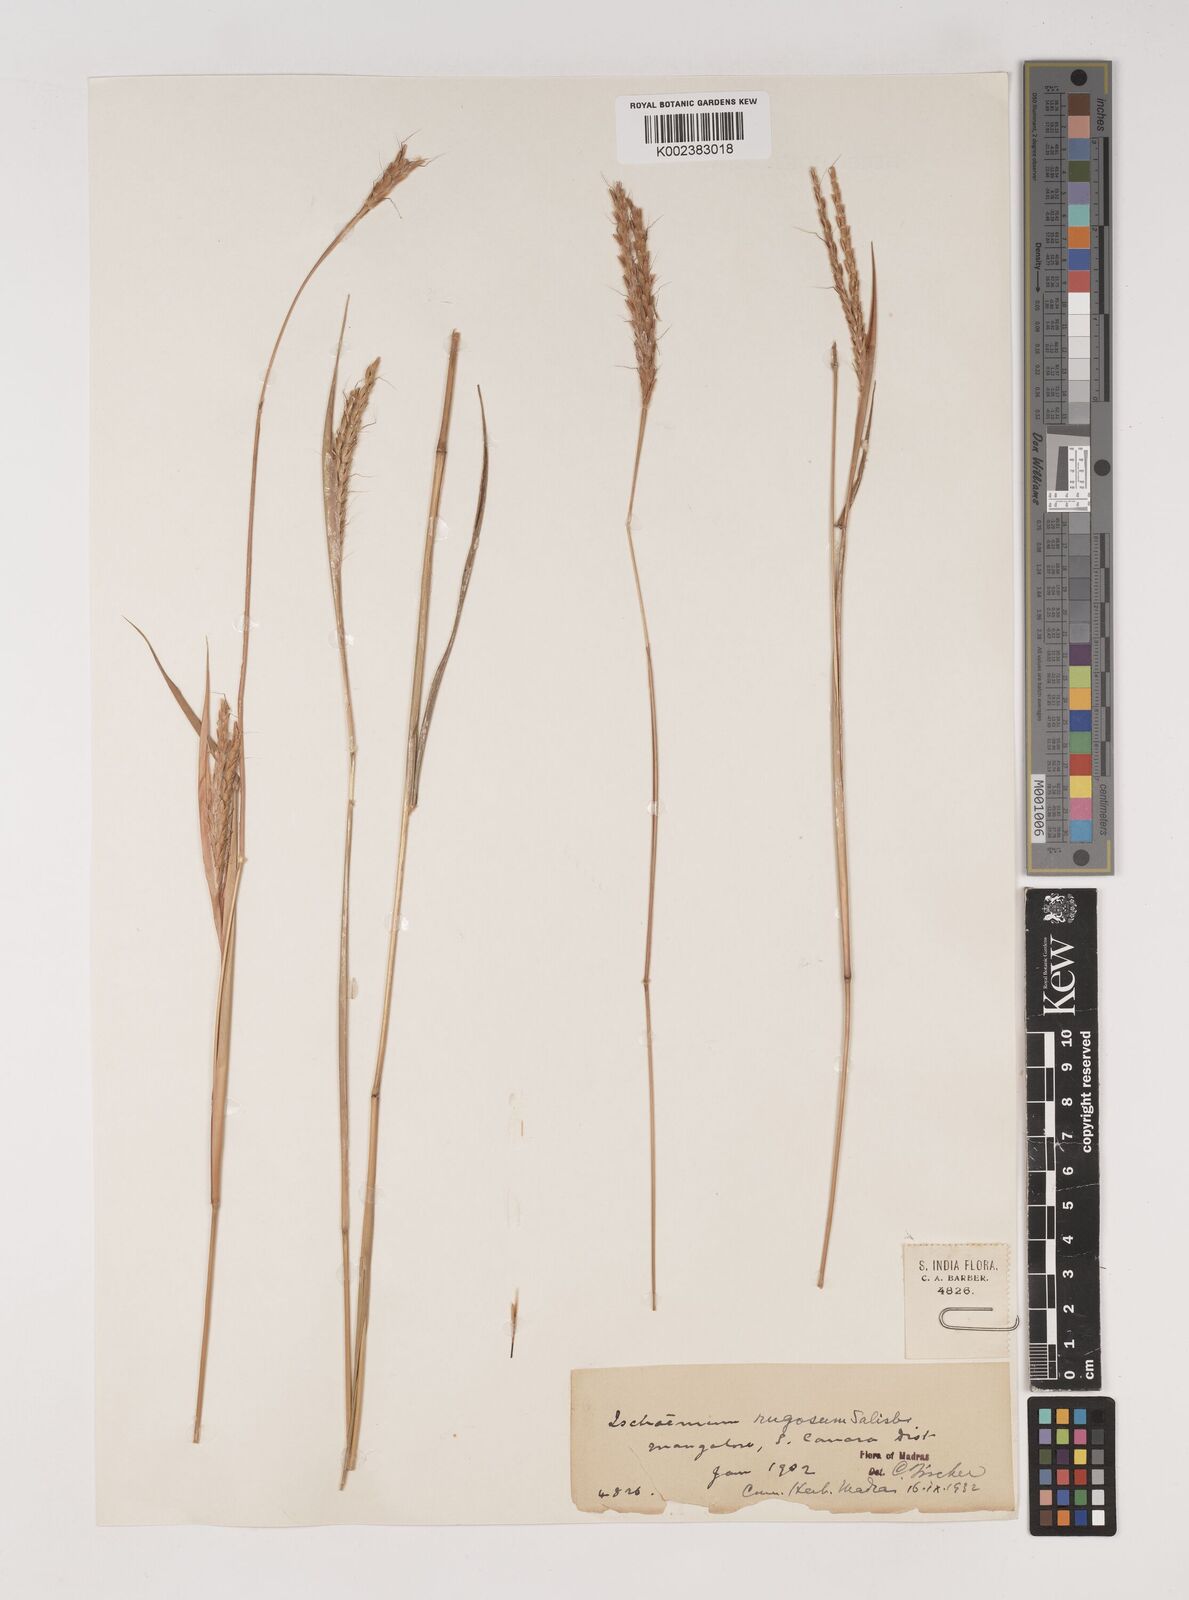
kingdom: Plantae
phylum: Tracheophyta
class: Liliopsida
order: Poales
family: Poaceae
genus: Ischaemum
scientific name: Ischaemum rugosum
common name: Saramatta grass
